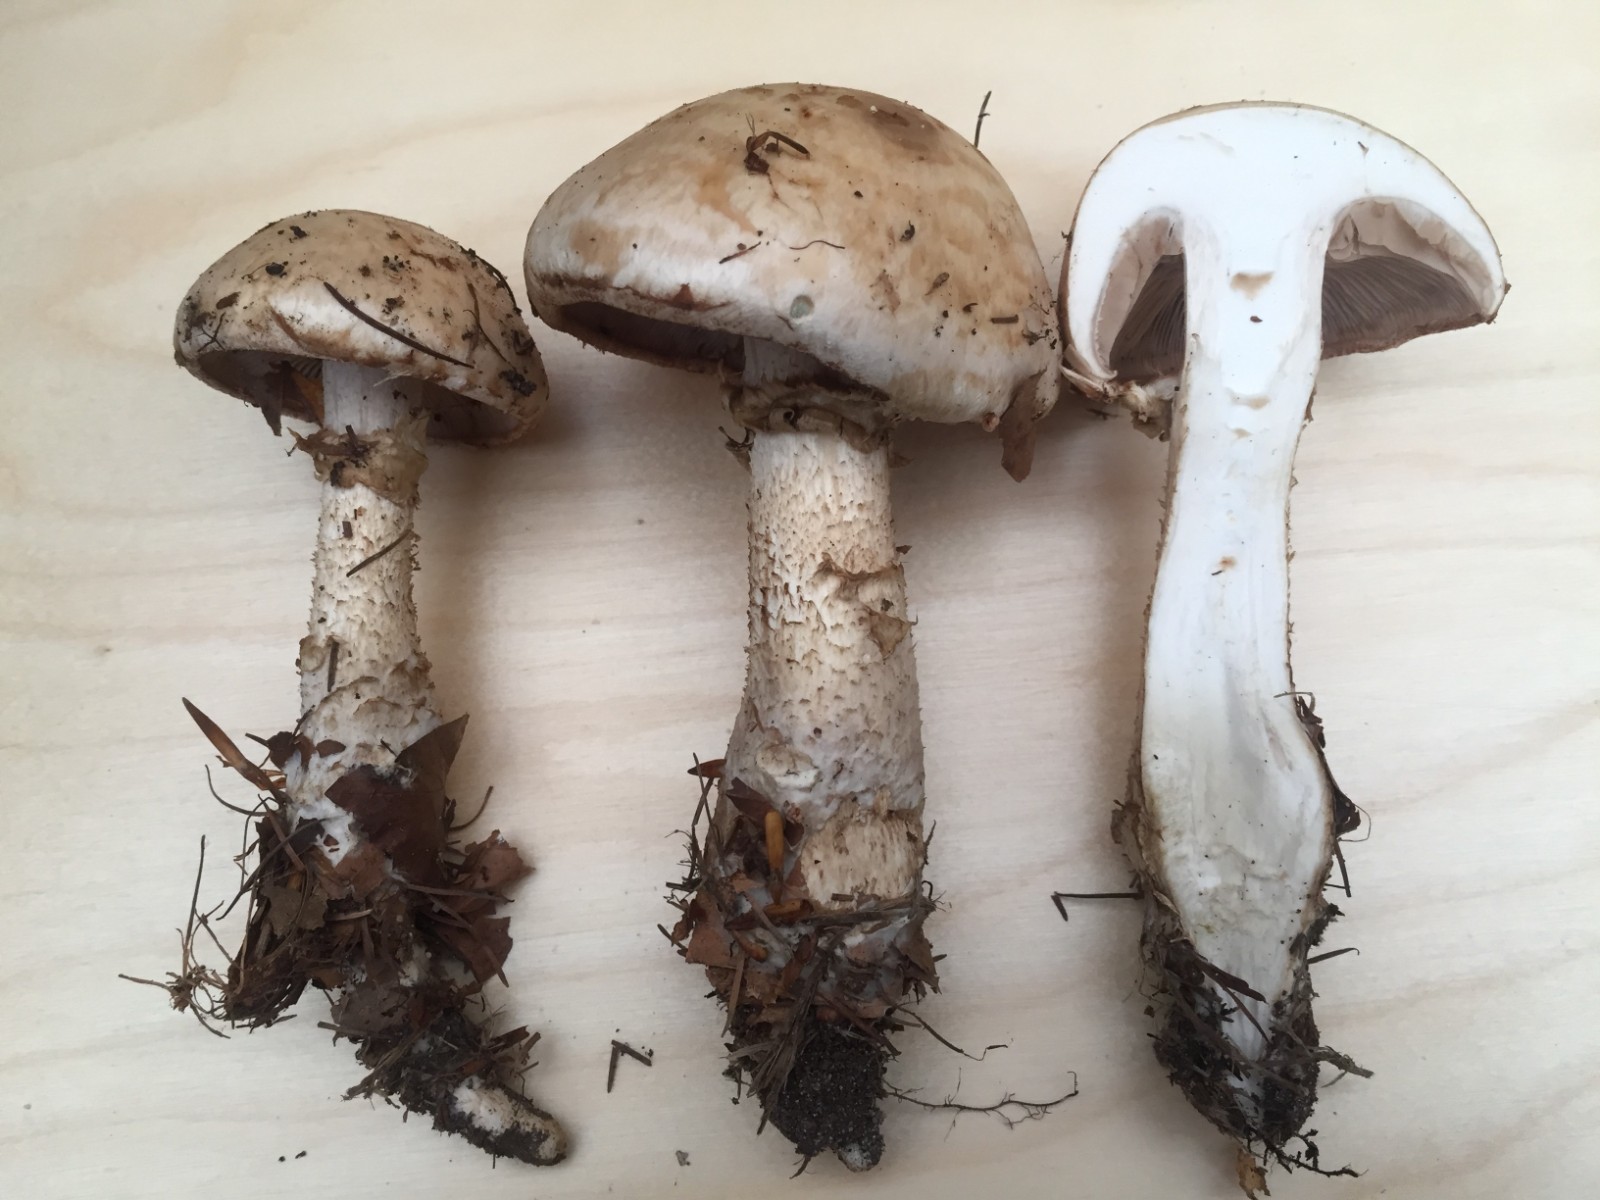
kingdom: Fungi
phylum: Basidiomycota
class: Agaricomycetes
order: Agaricales
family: Hymenogastraceae
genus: Hebeloma
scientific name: Hebeloma radicosum
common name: pælerods-tåreblad
